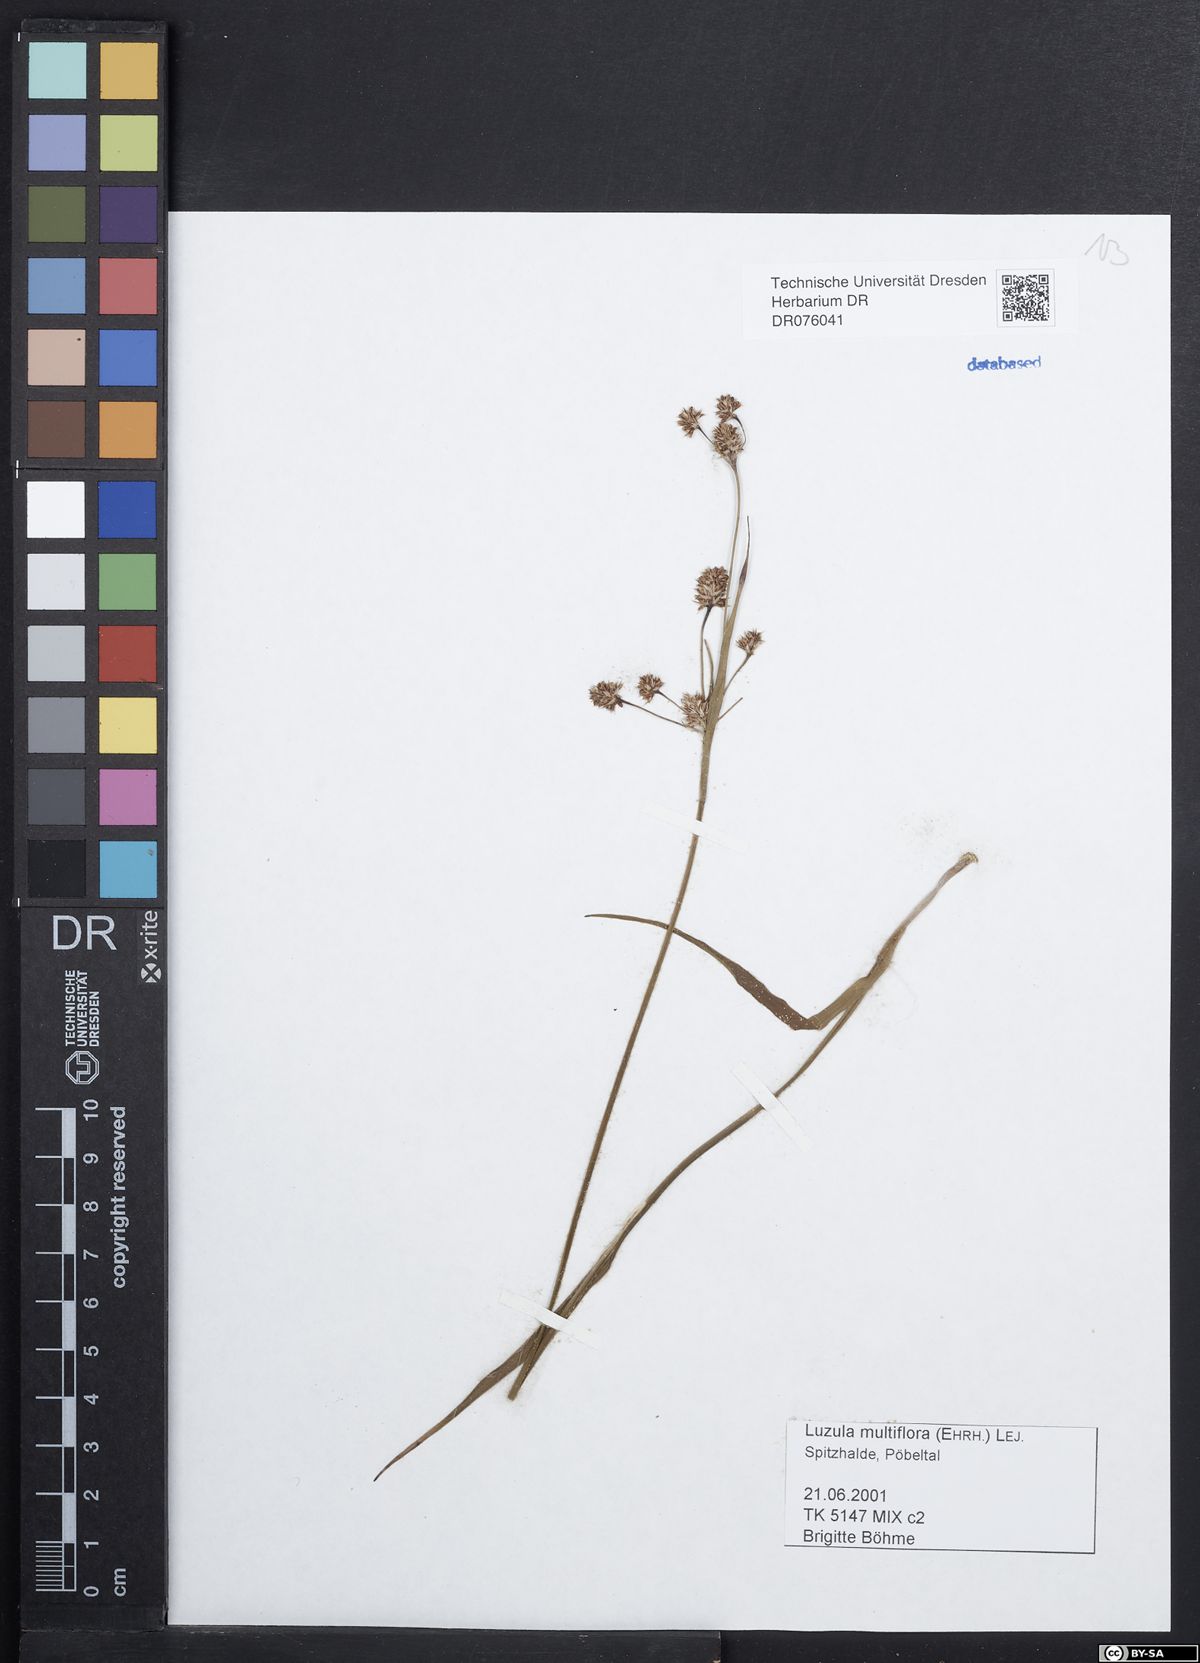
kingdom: Plantae
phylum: Tracheophyta
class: Liliopsida
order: Poales
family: Juncaceae
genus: Luzula
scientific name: Luzula multiflora
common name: Heath wood-rush
